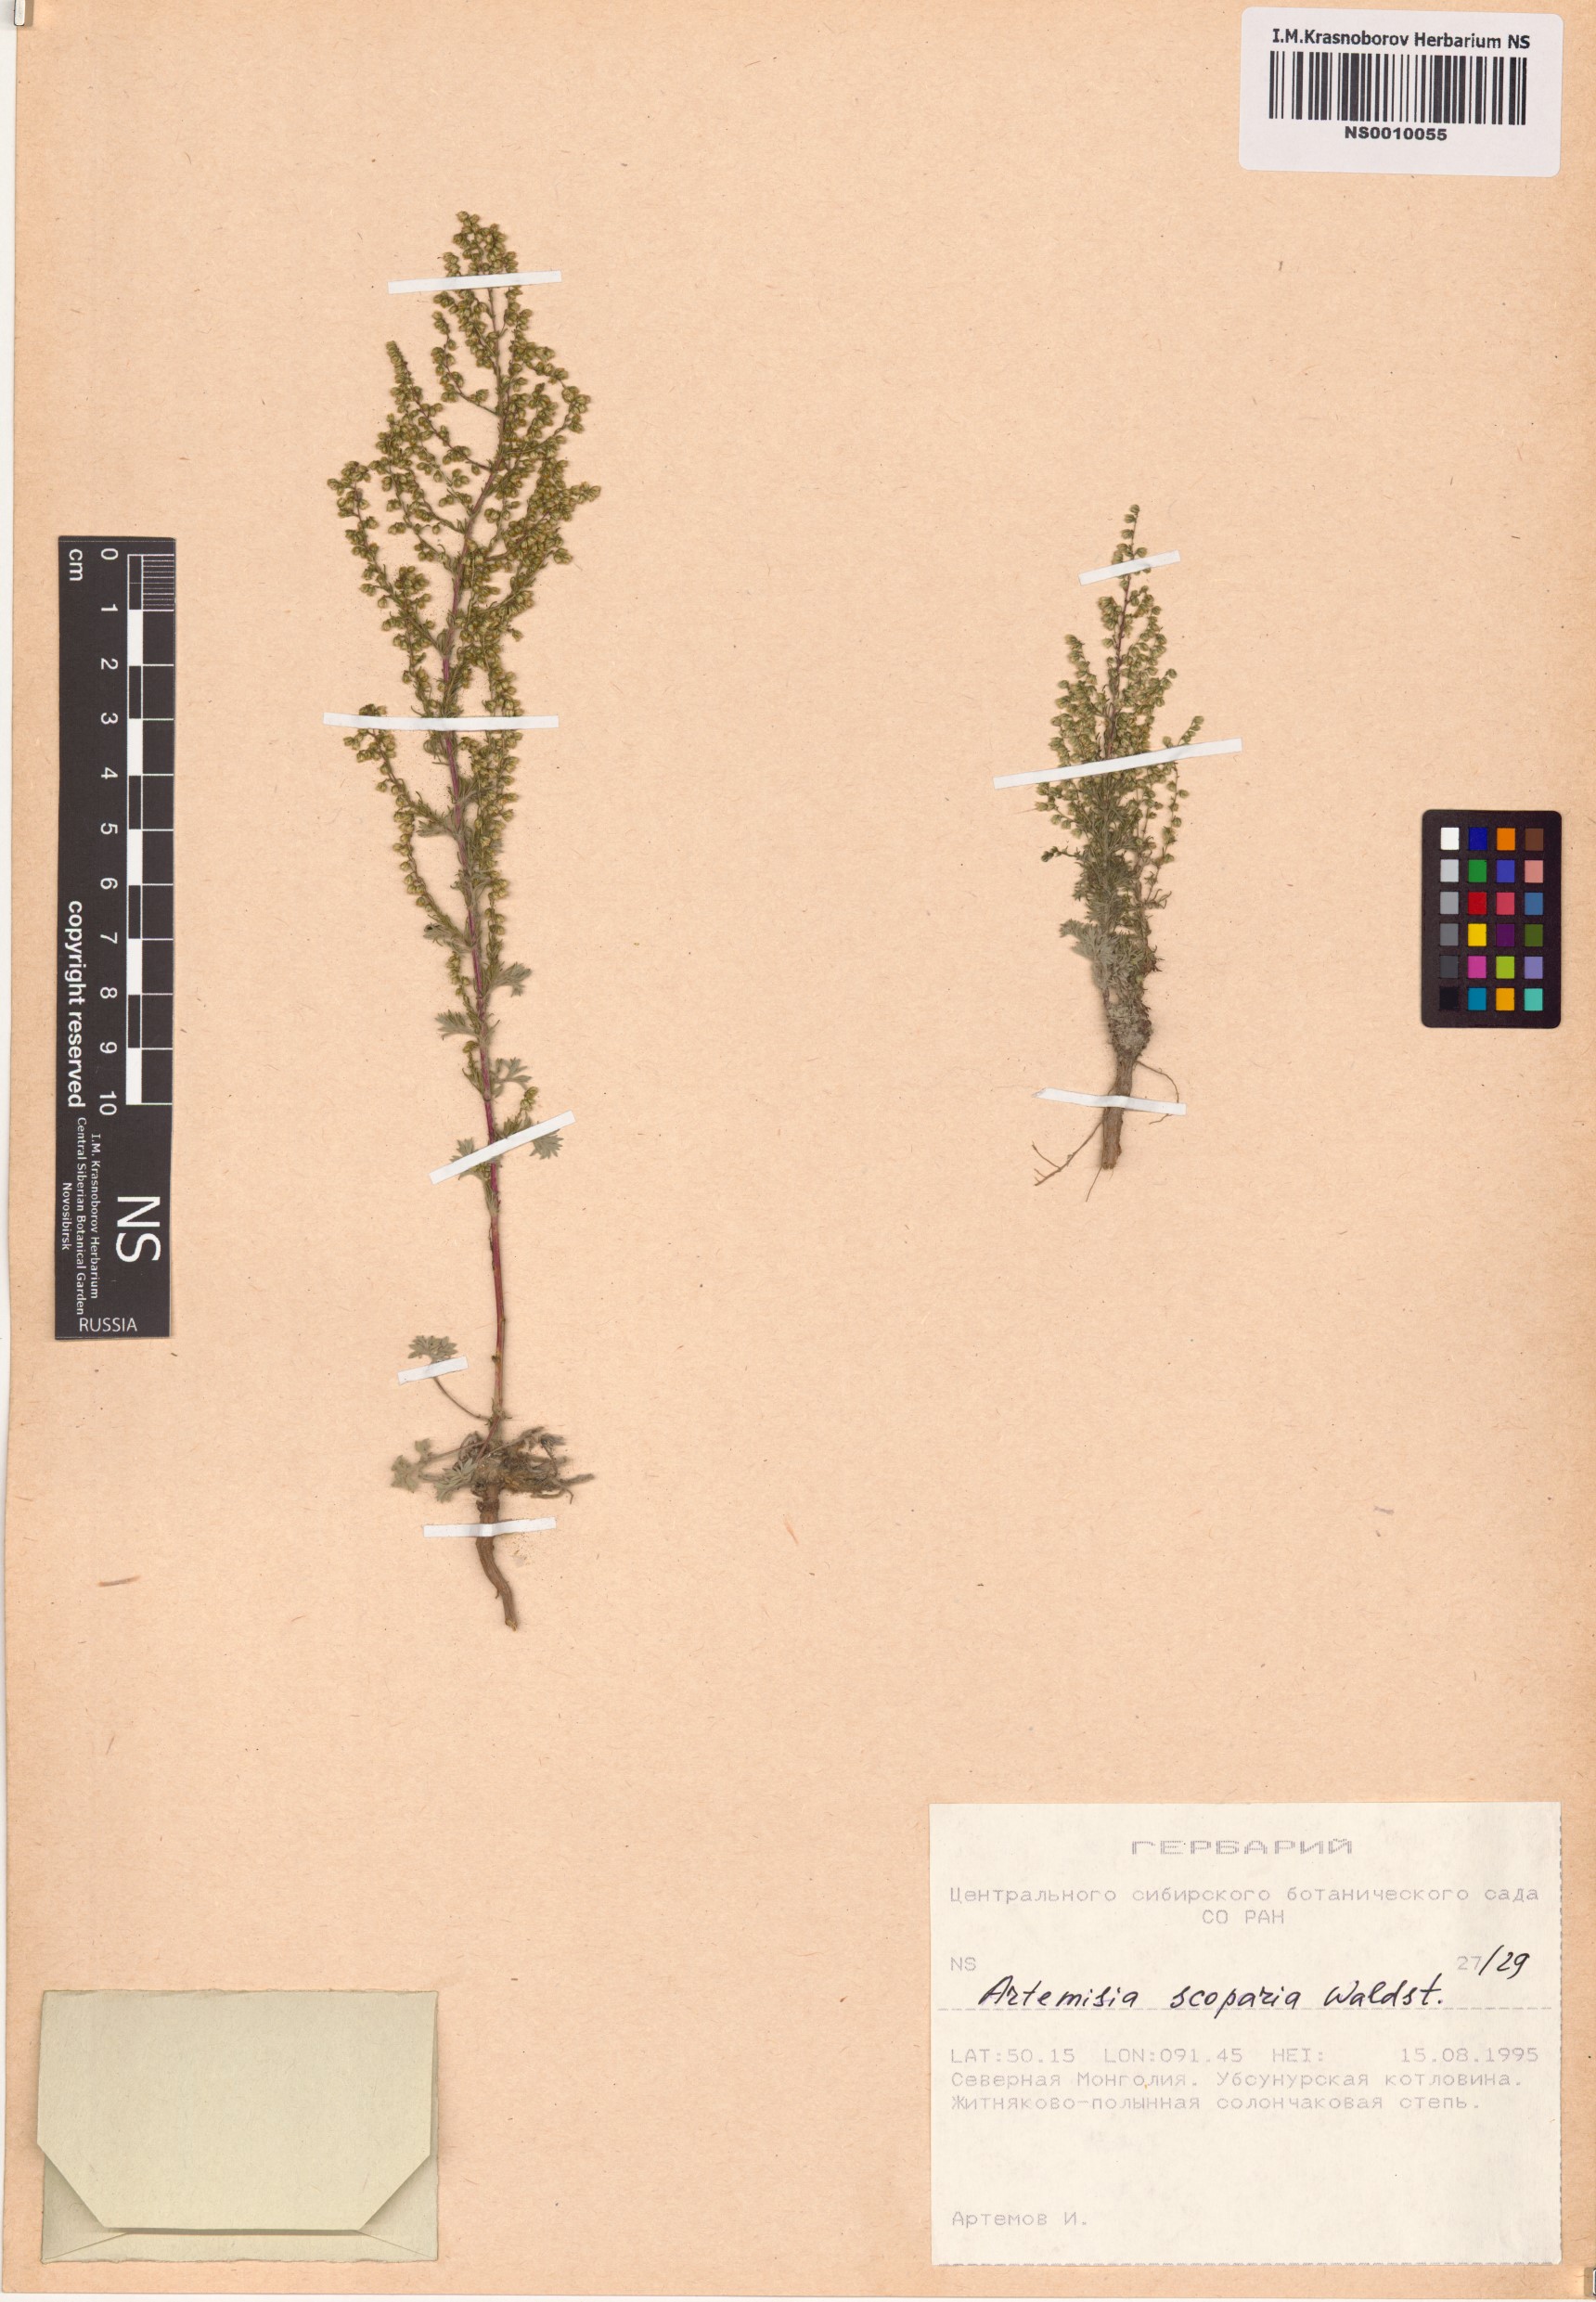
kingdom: Plantae
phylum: Tracheophyta
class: Magnoliopsida
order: Asterales
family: Asteraceae
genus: Artemisia
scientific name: Artemisia scoparia
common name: Redstem wormwood
